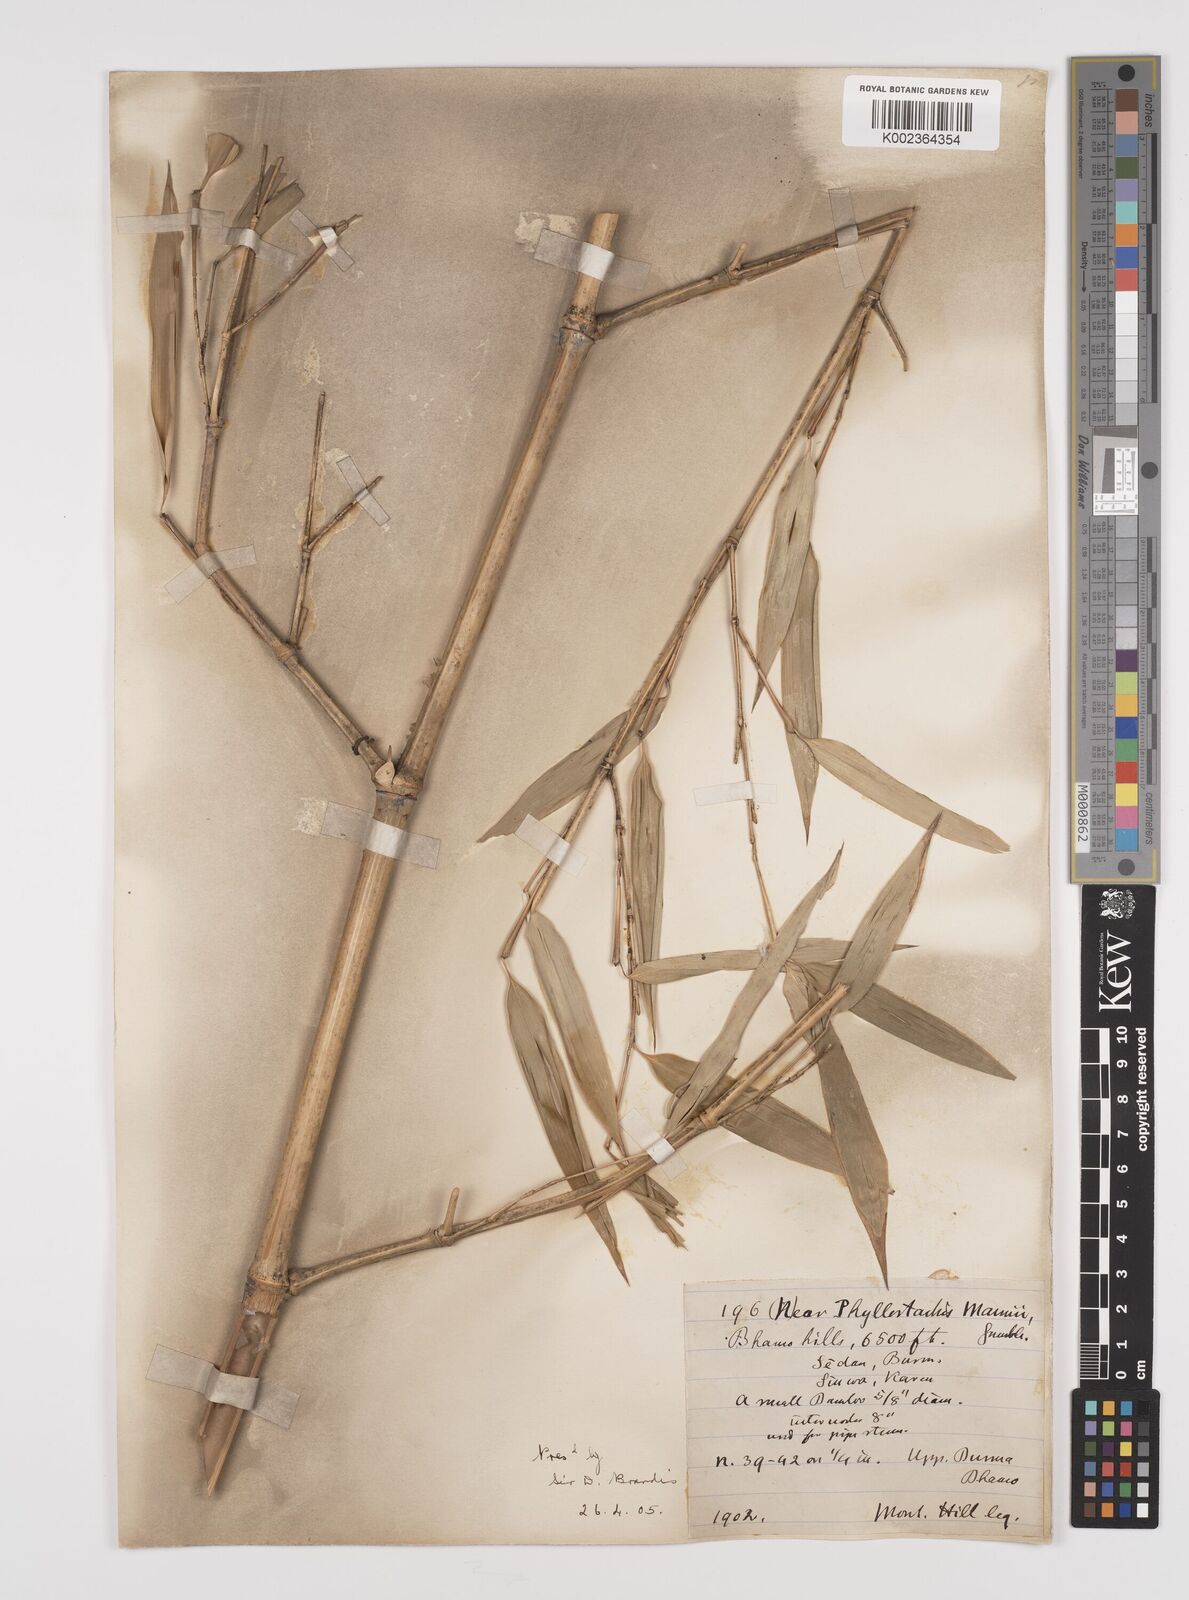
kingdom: Plantae
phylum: Tracheophyta
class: Liliopsida
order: Poales
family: Poaceae
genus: Phyllostachys
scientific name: Phyllostachys mannii
